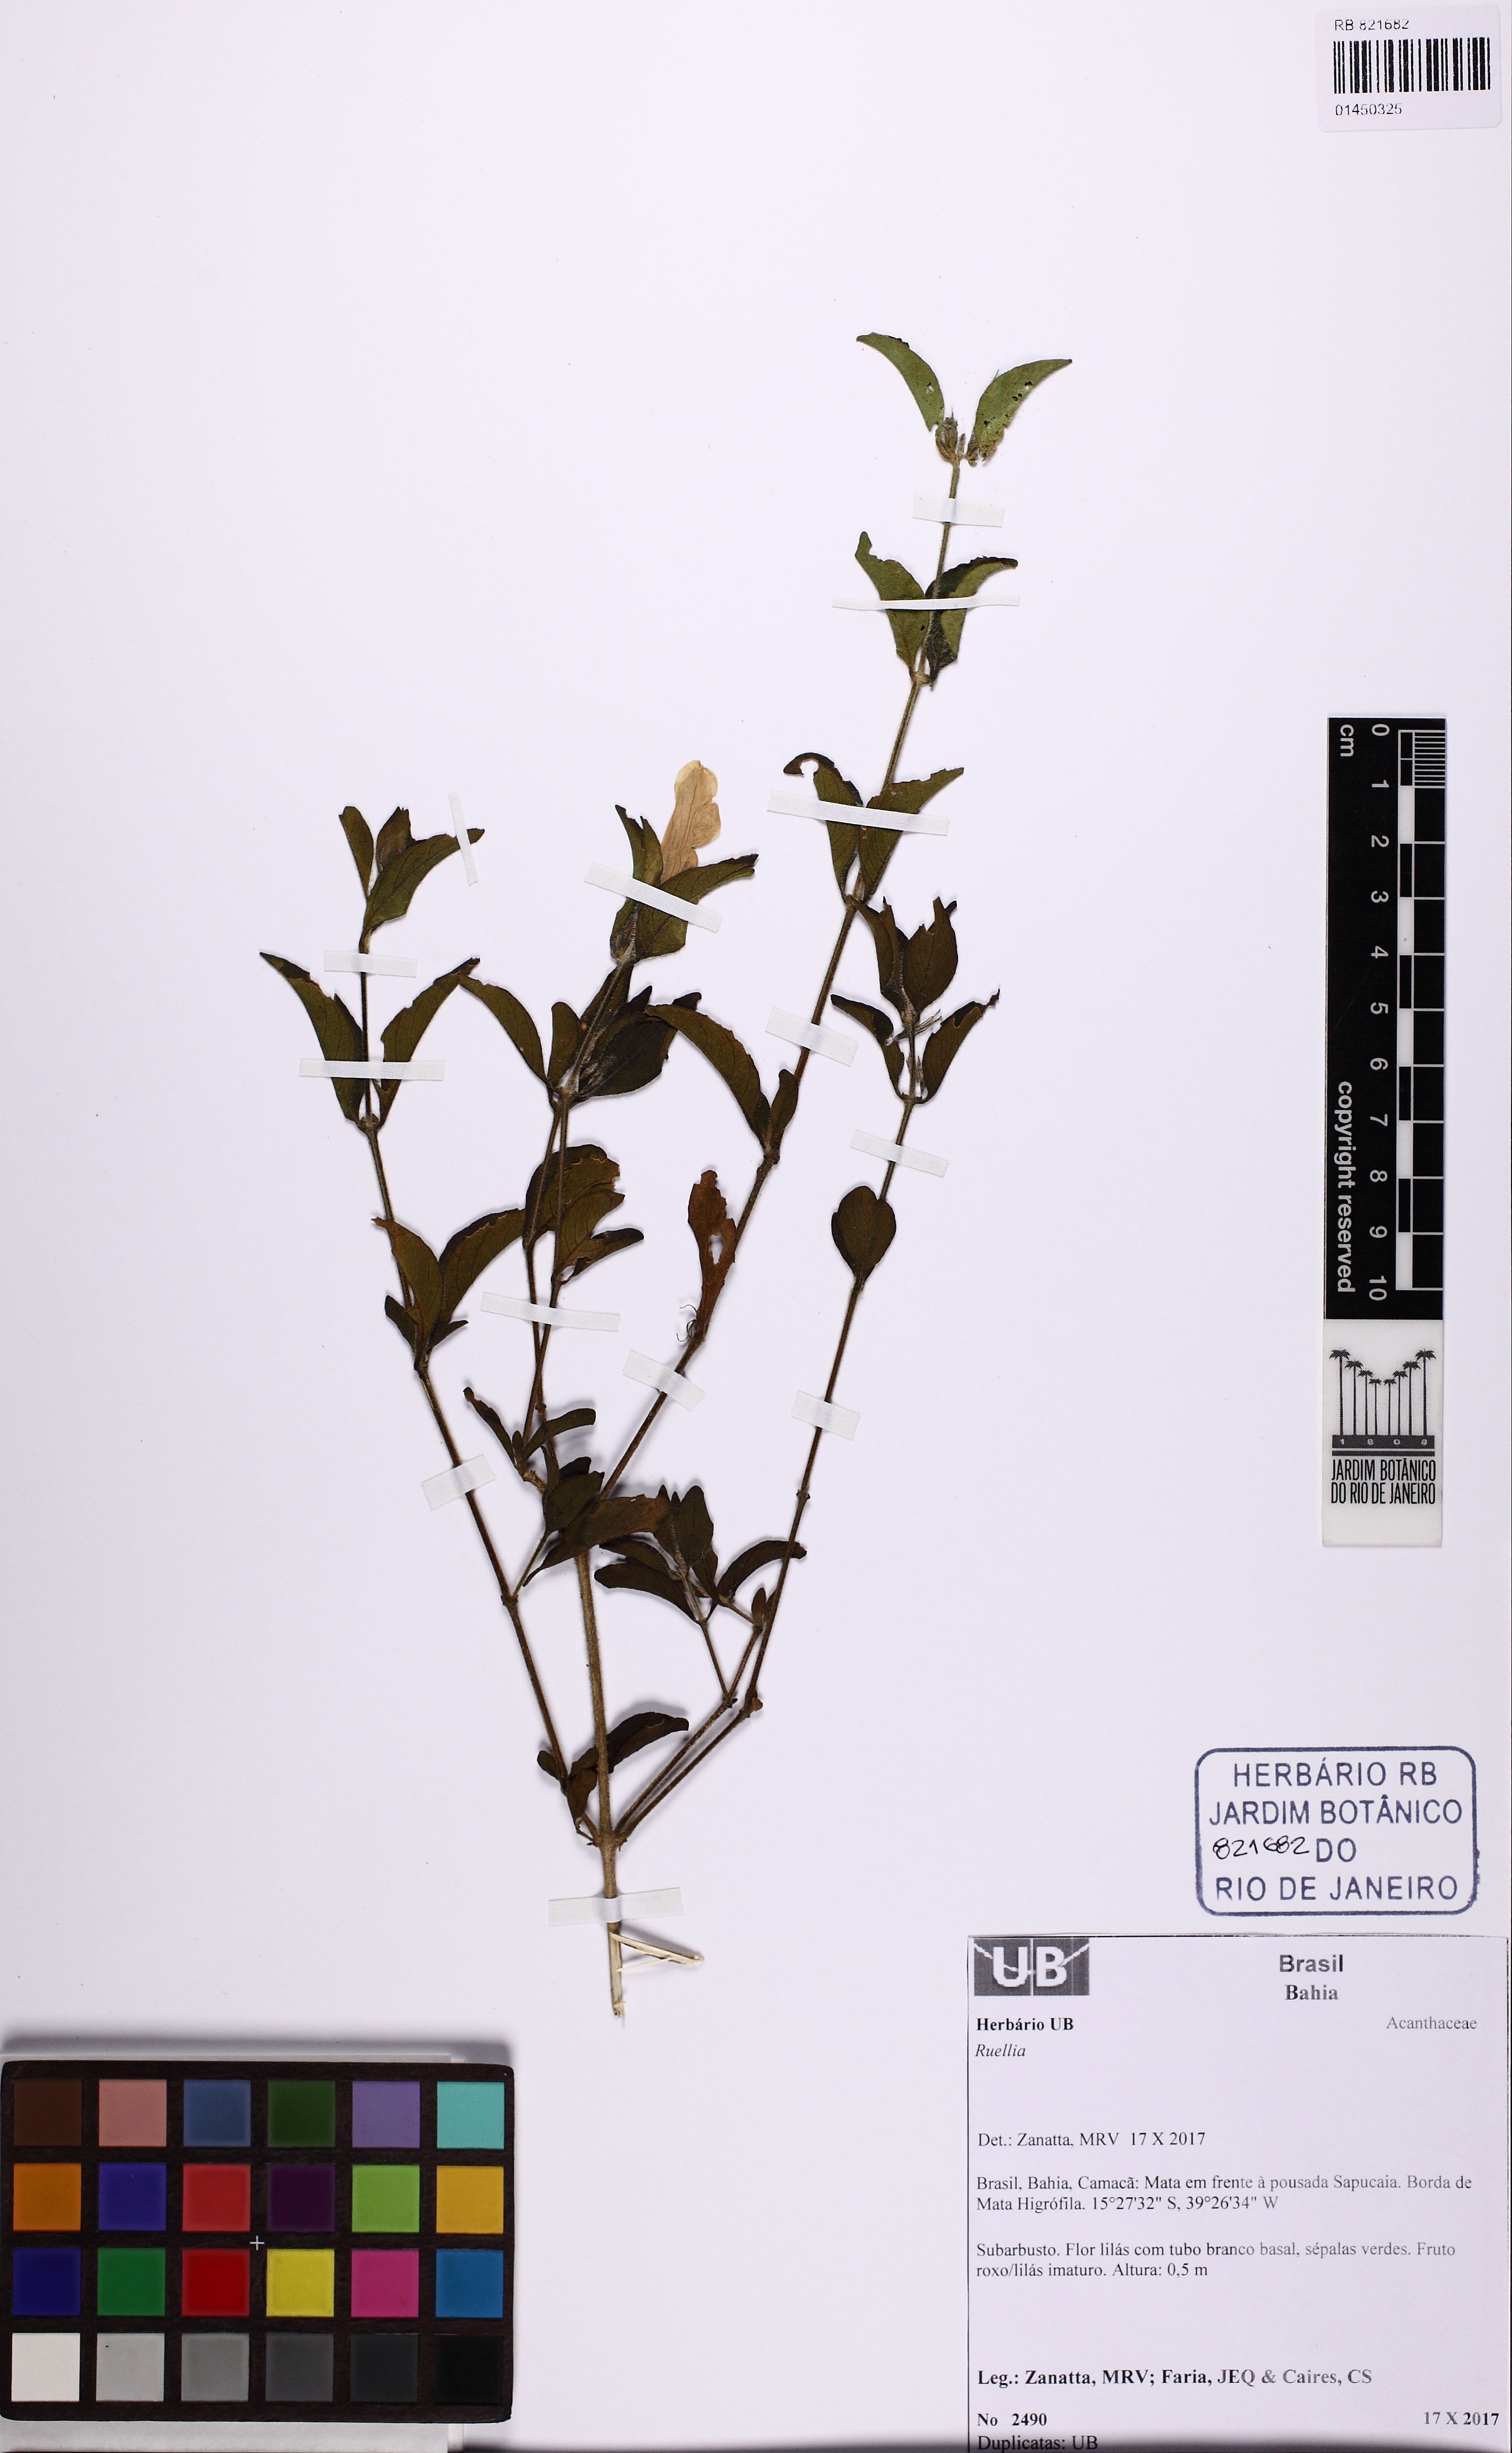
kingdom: Plantae
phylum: Tracheophyta
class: Magnoliopsida
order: Lamiales
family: Acanthaceae
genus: Ruellia
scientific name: Ruellia
